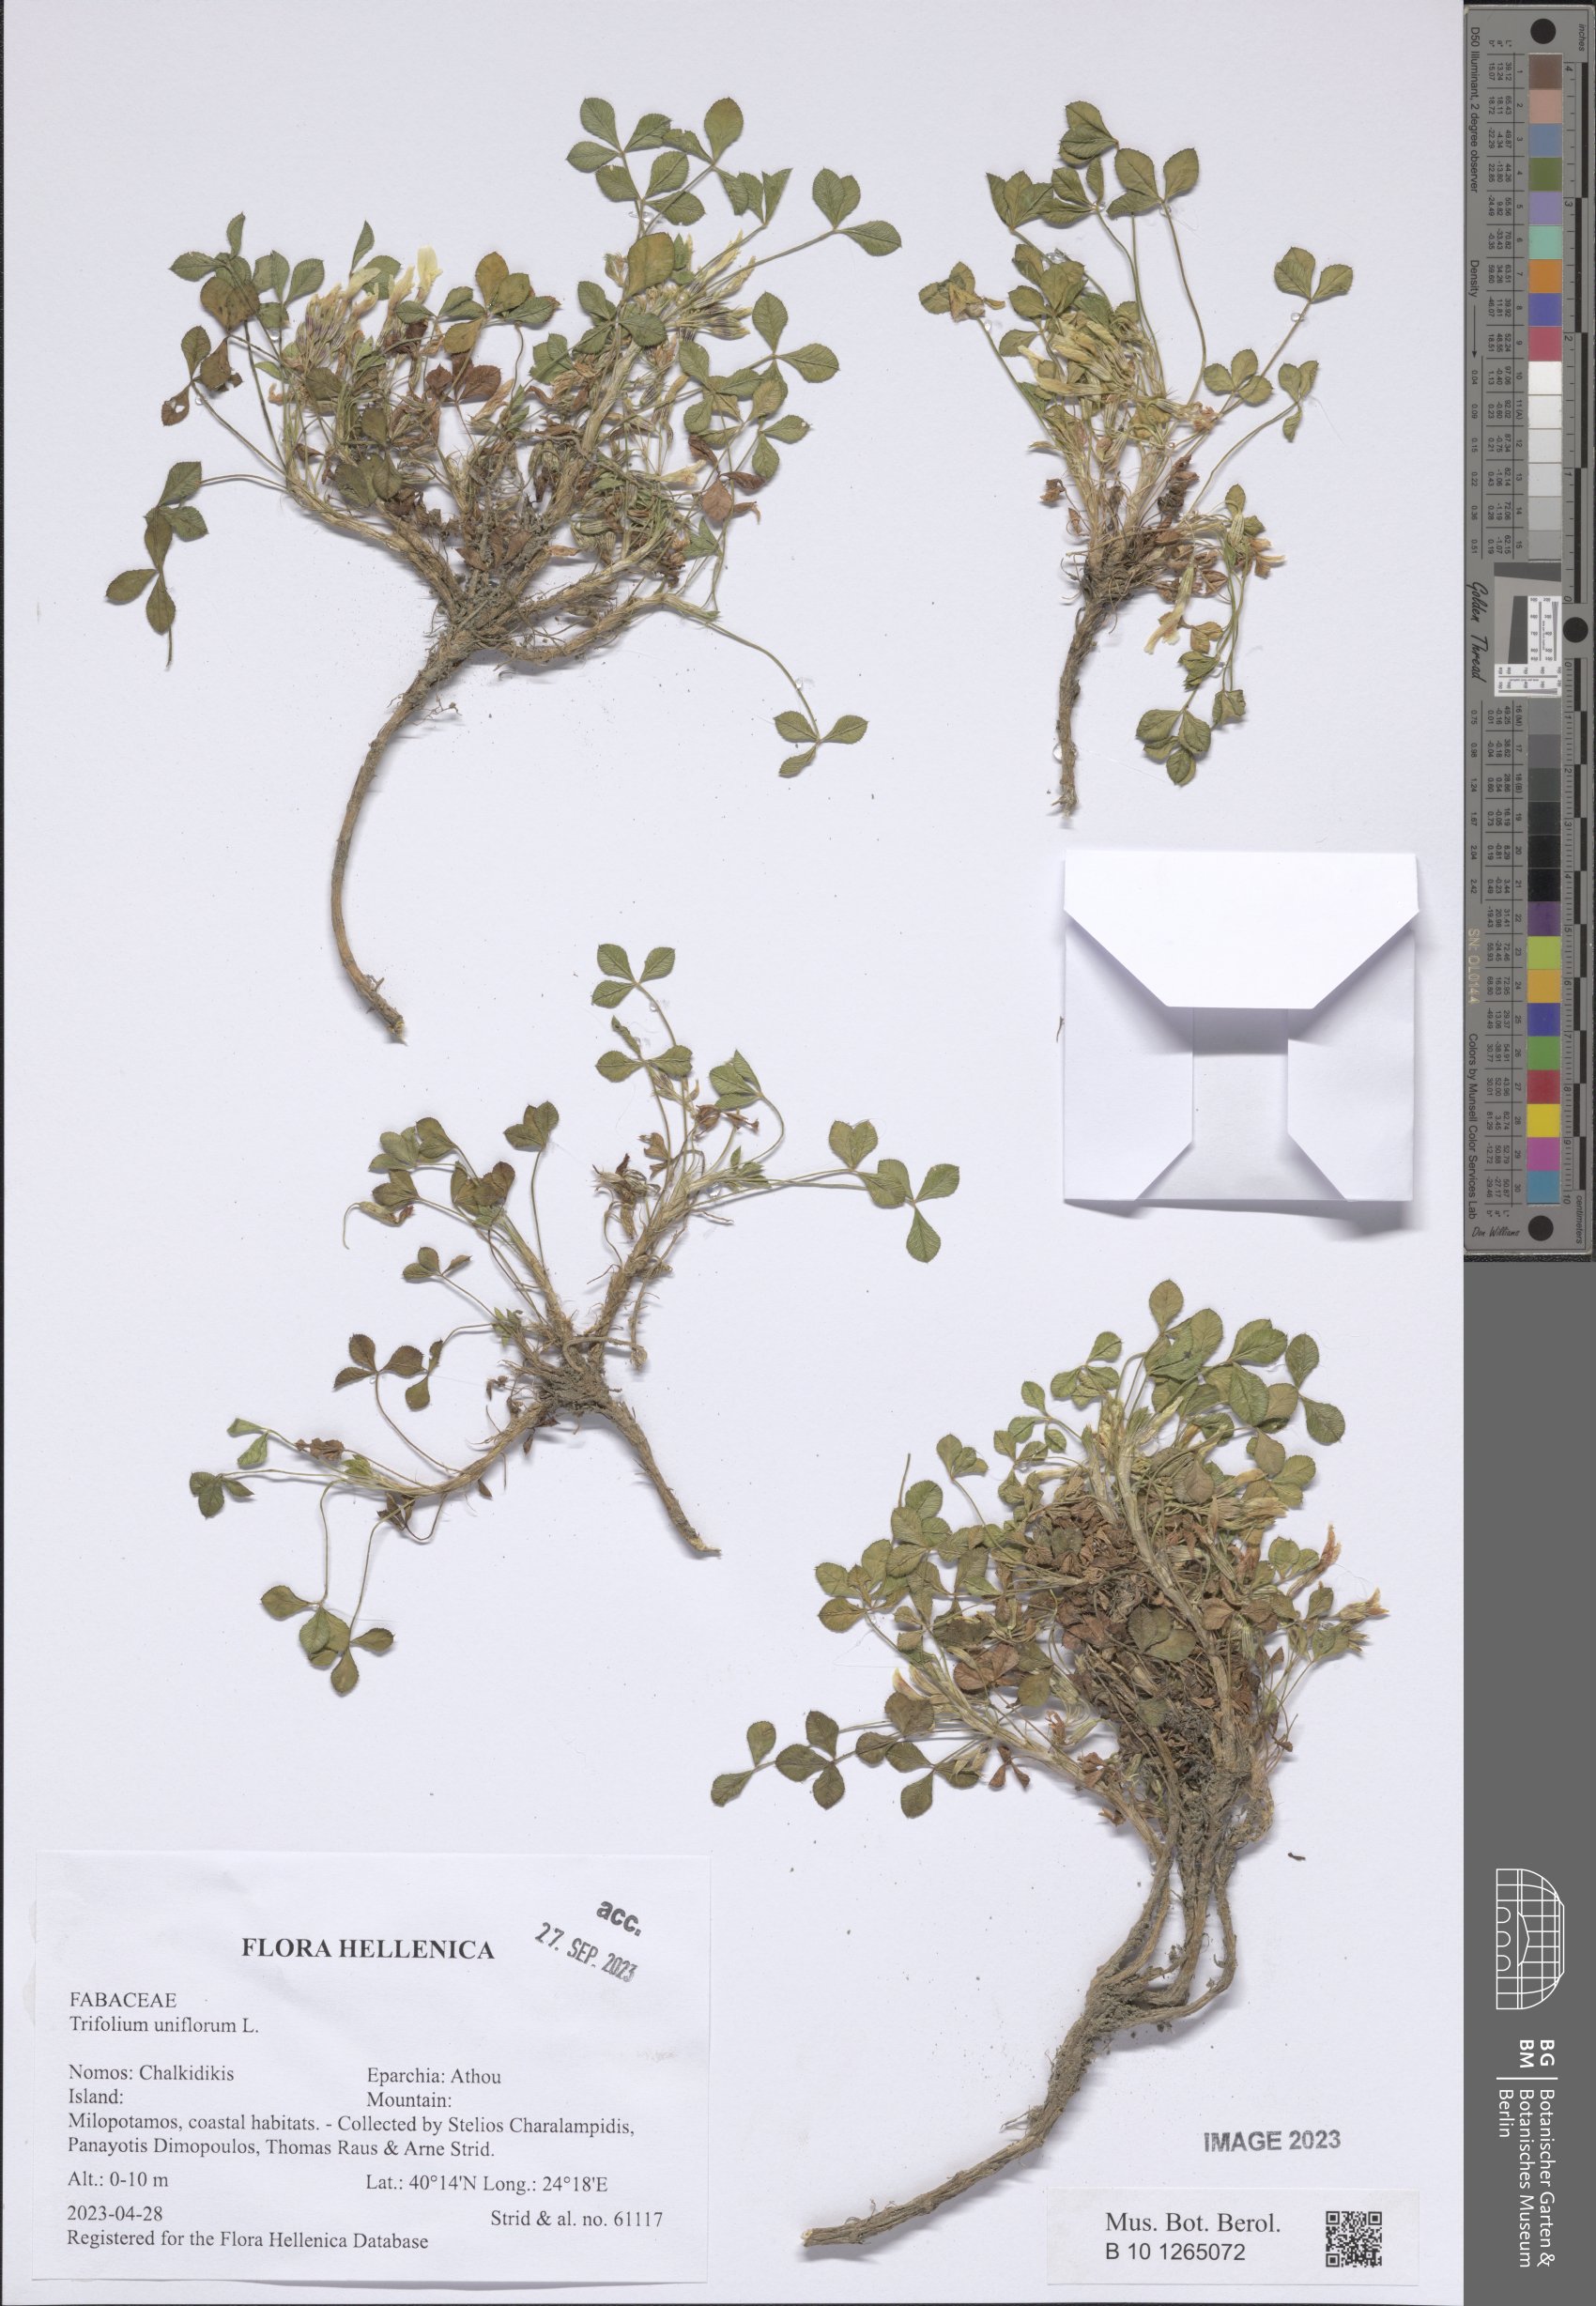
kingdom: Plantae
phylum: Tracheophyta
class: Magnoliopsida
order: Fabales
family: Fabaceae
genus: Trifolium
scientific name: Trifolium uniflorum
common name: One-flower clover
